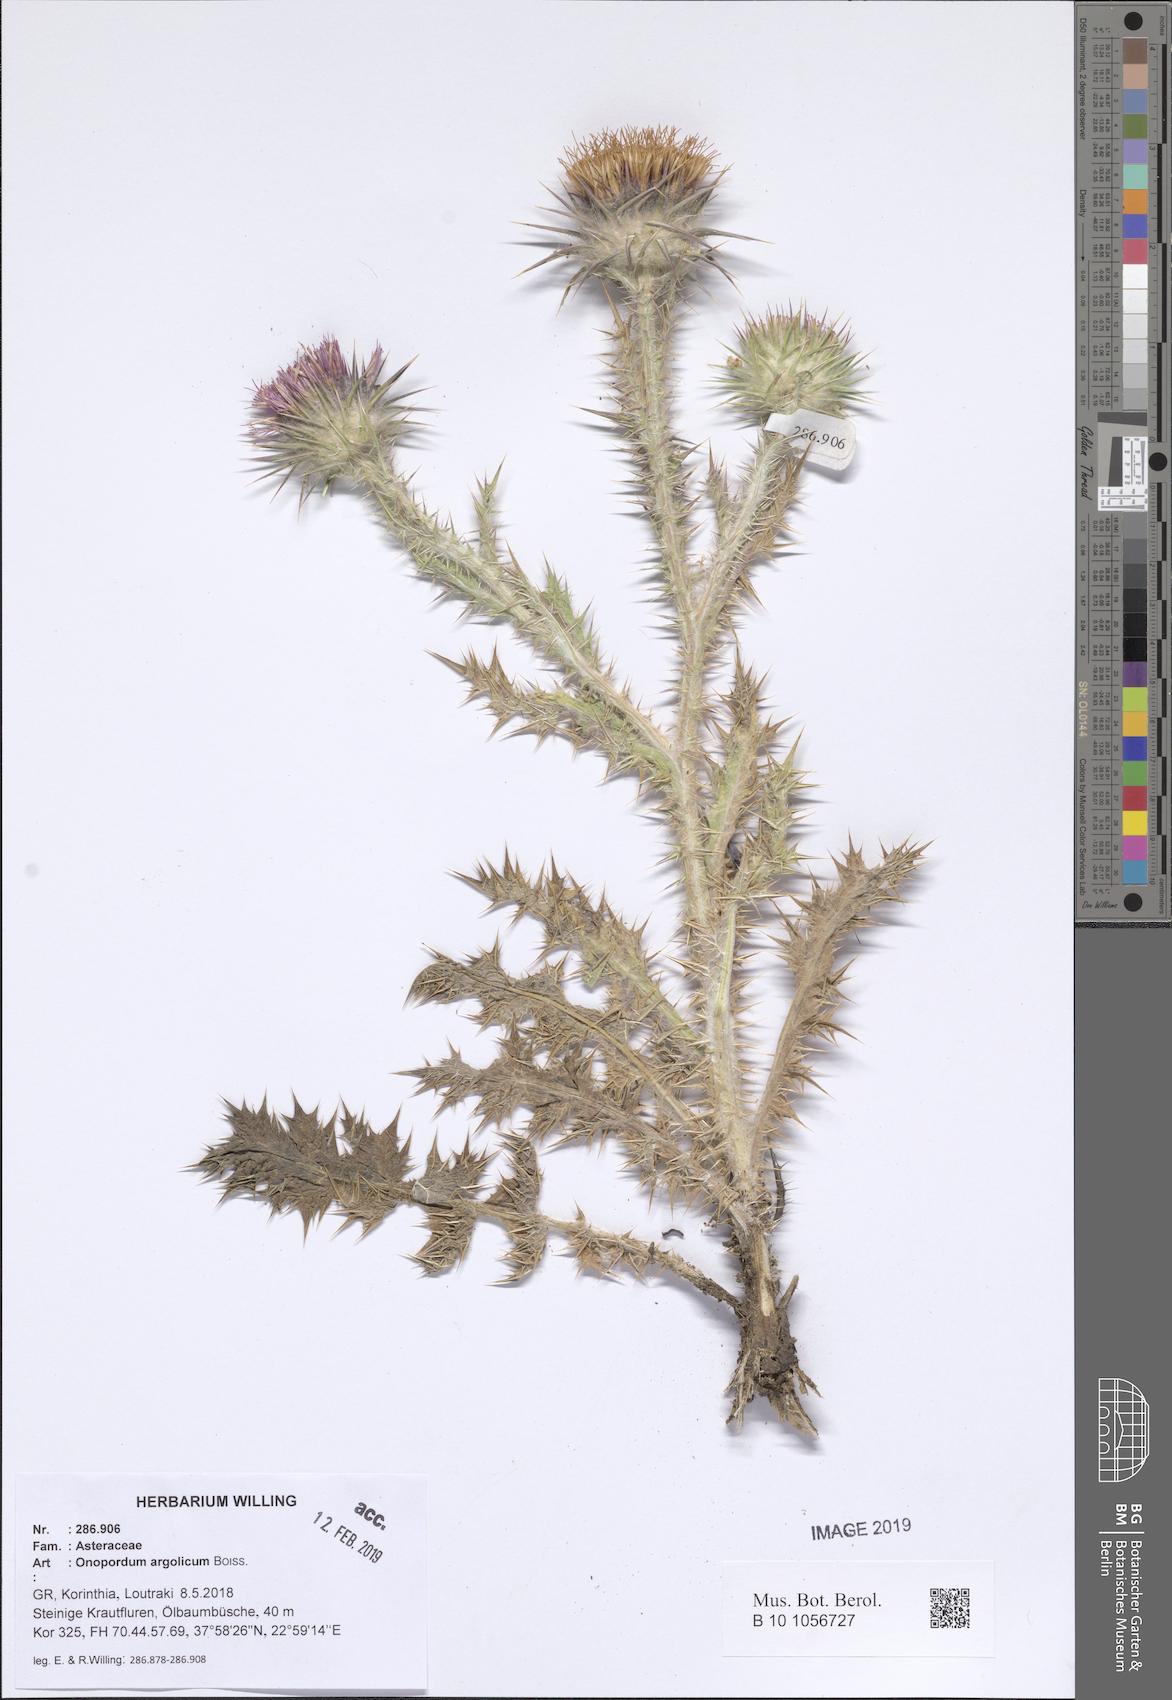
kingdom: Plantae
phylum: Tracheophyta
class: Magnoliopsida
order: Asterales
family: Asteraceae
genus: Onopordum
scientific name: Onopordum tauricum
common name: Bull cottonthistle
